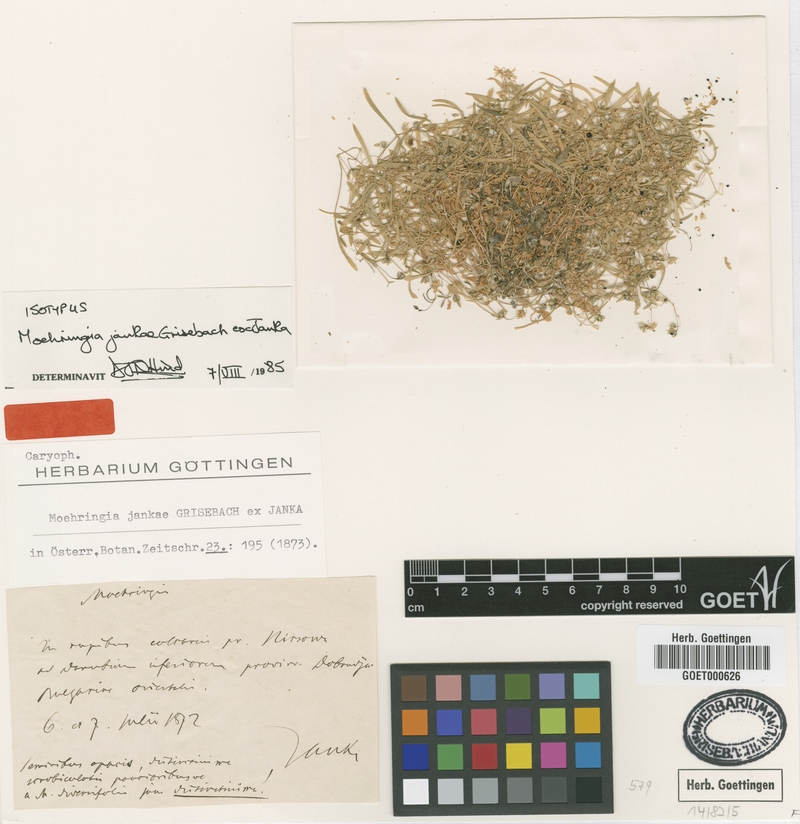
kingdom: Plantae
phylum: Tracheophyta
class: Magnoliopsida
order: Caryophyllales
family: Caryophyllaceae
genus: Moehringia
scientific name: Moehringia jankae
